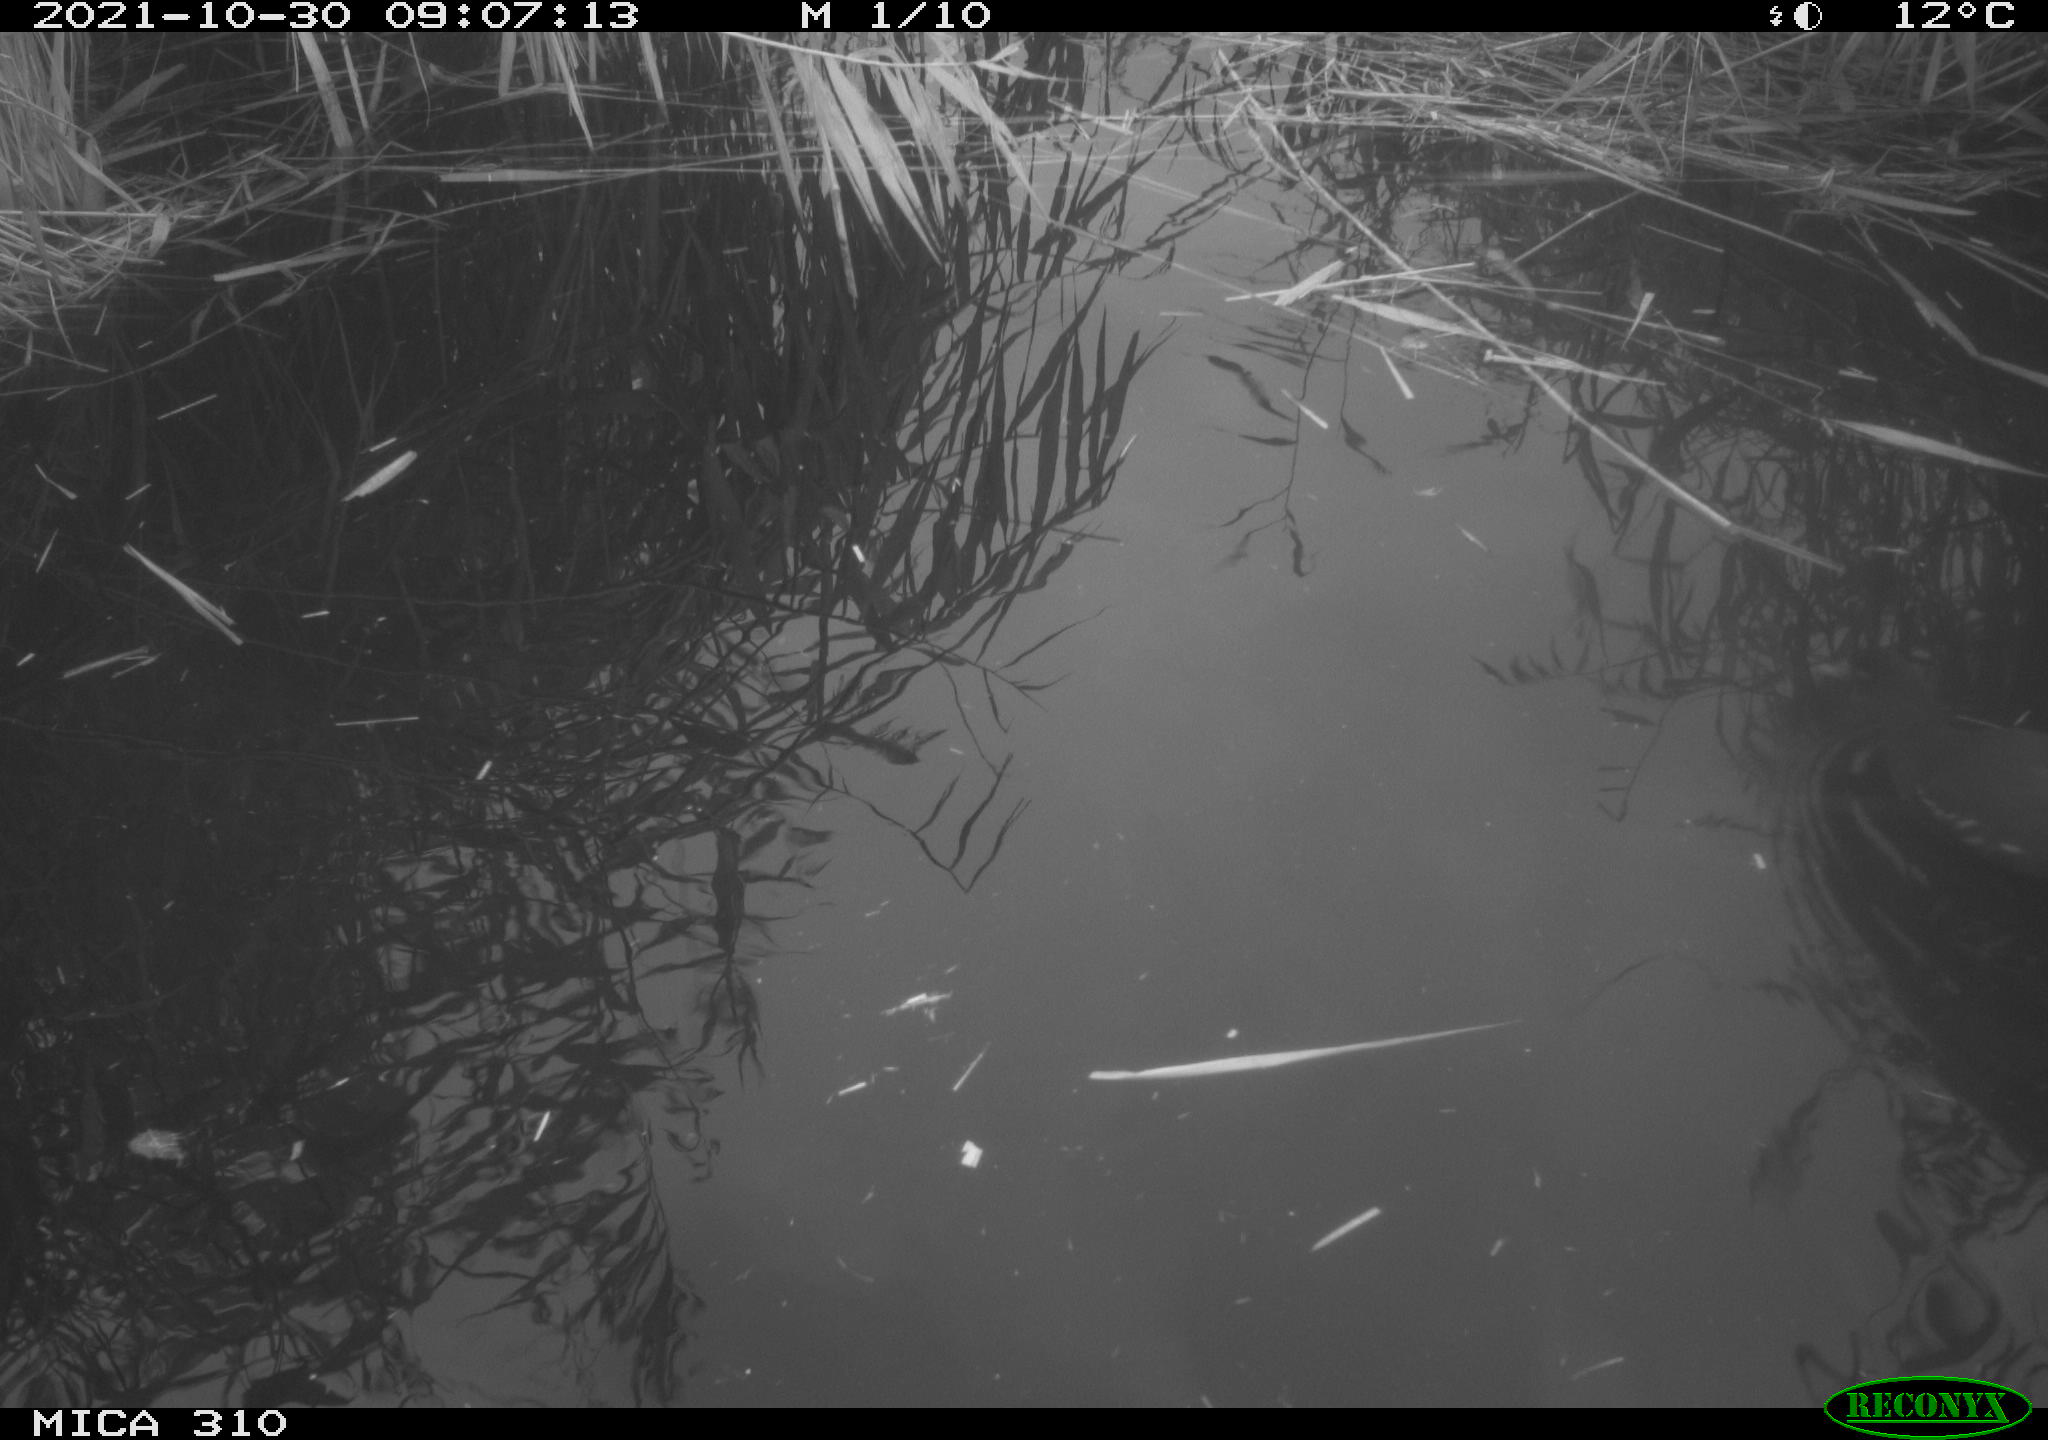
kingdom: Animalia
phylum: Chordata
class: Aves
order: Gruiformes
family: Rallidae
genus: Gallinula
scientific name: Gallinula chloropus
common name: Common moorhen
